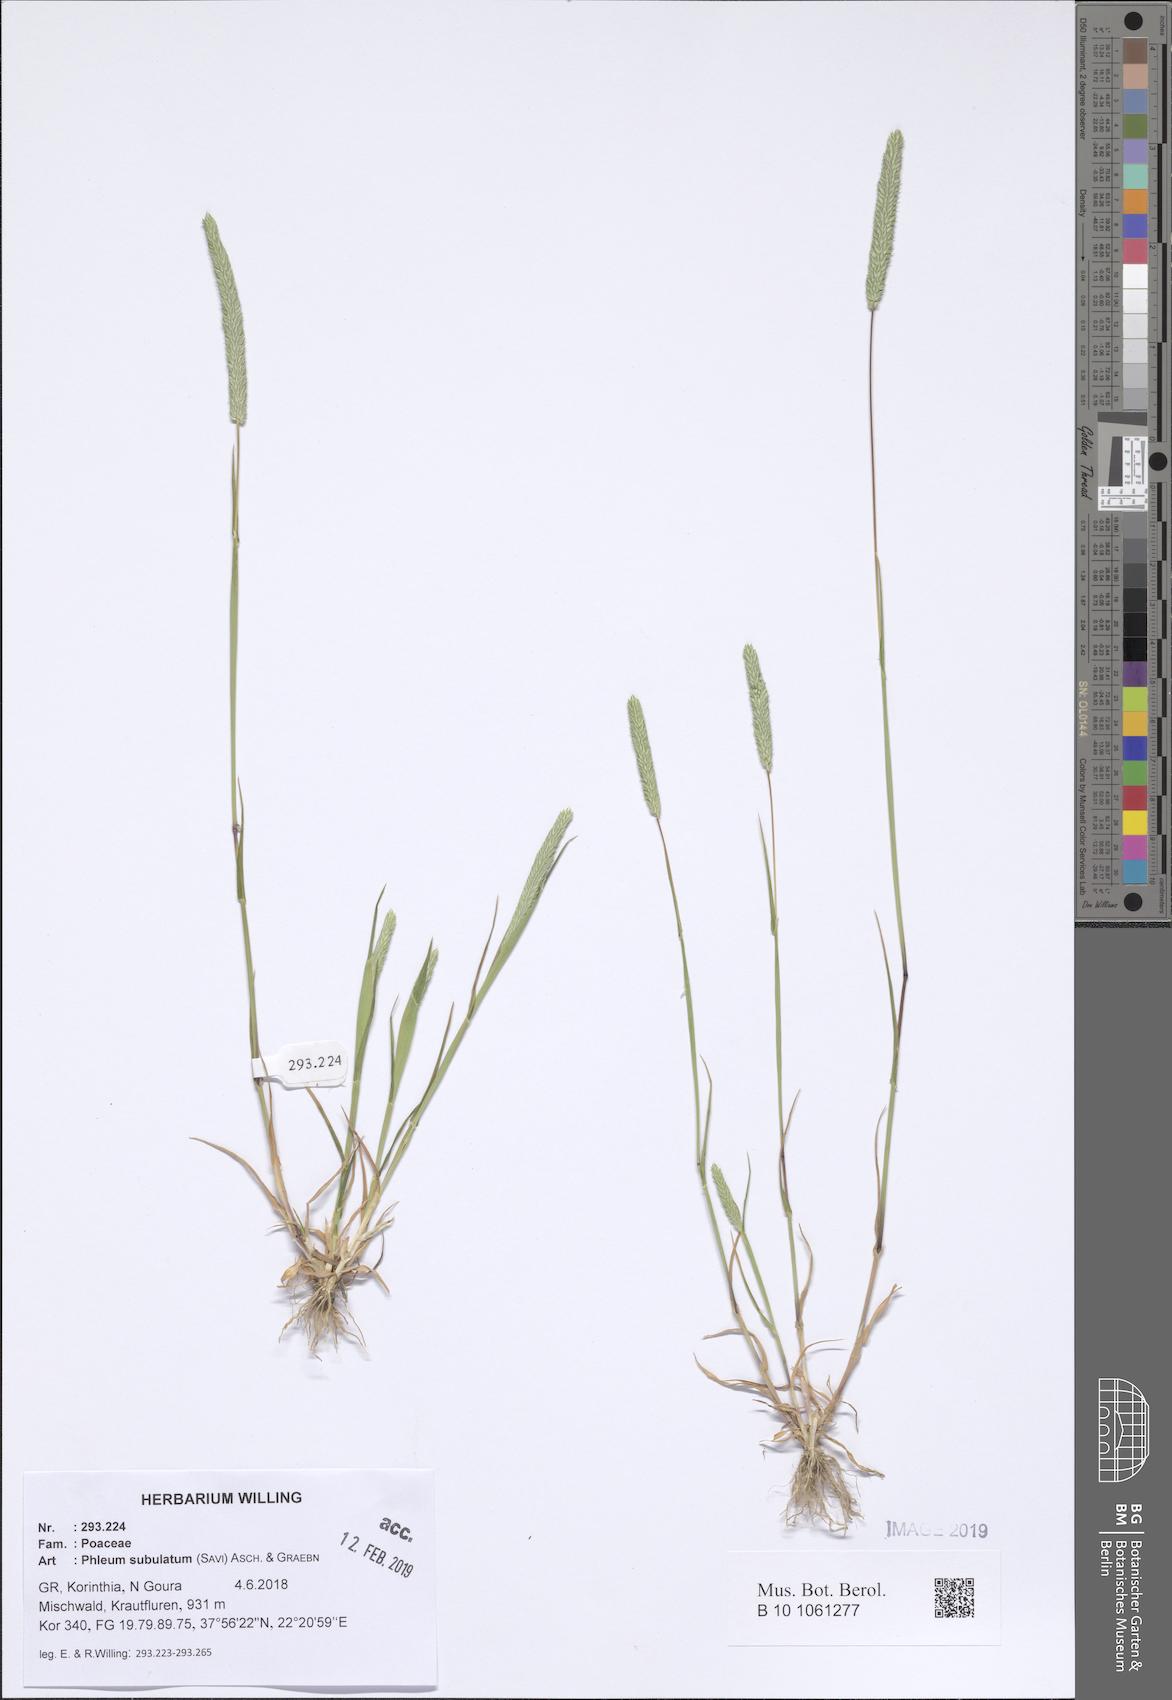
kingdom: Plantae
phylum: Tracheophyta
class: Liliopsida
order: Poales
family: Poaceae
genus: Phleum
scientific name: Phleum subulatum
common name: Italian timothy
